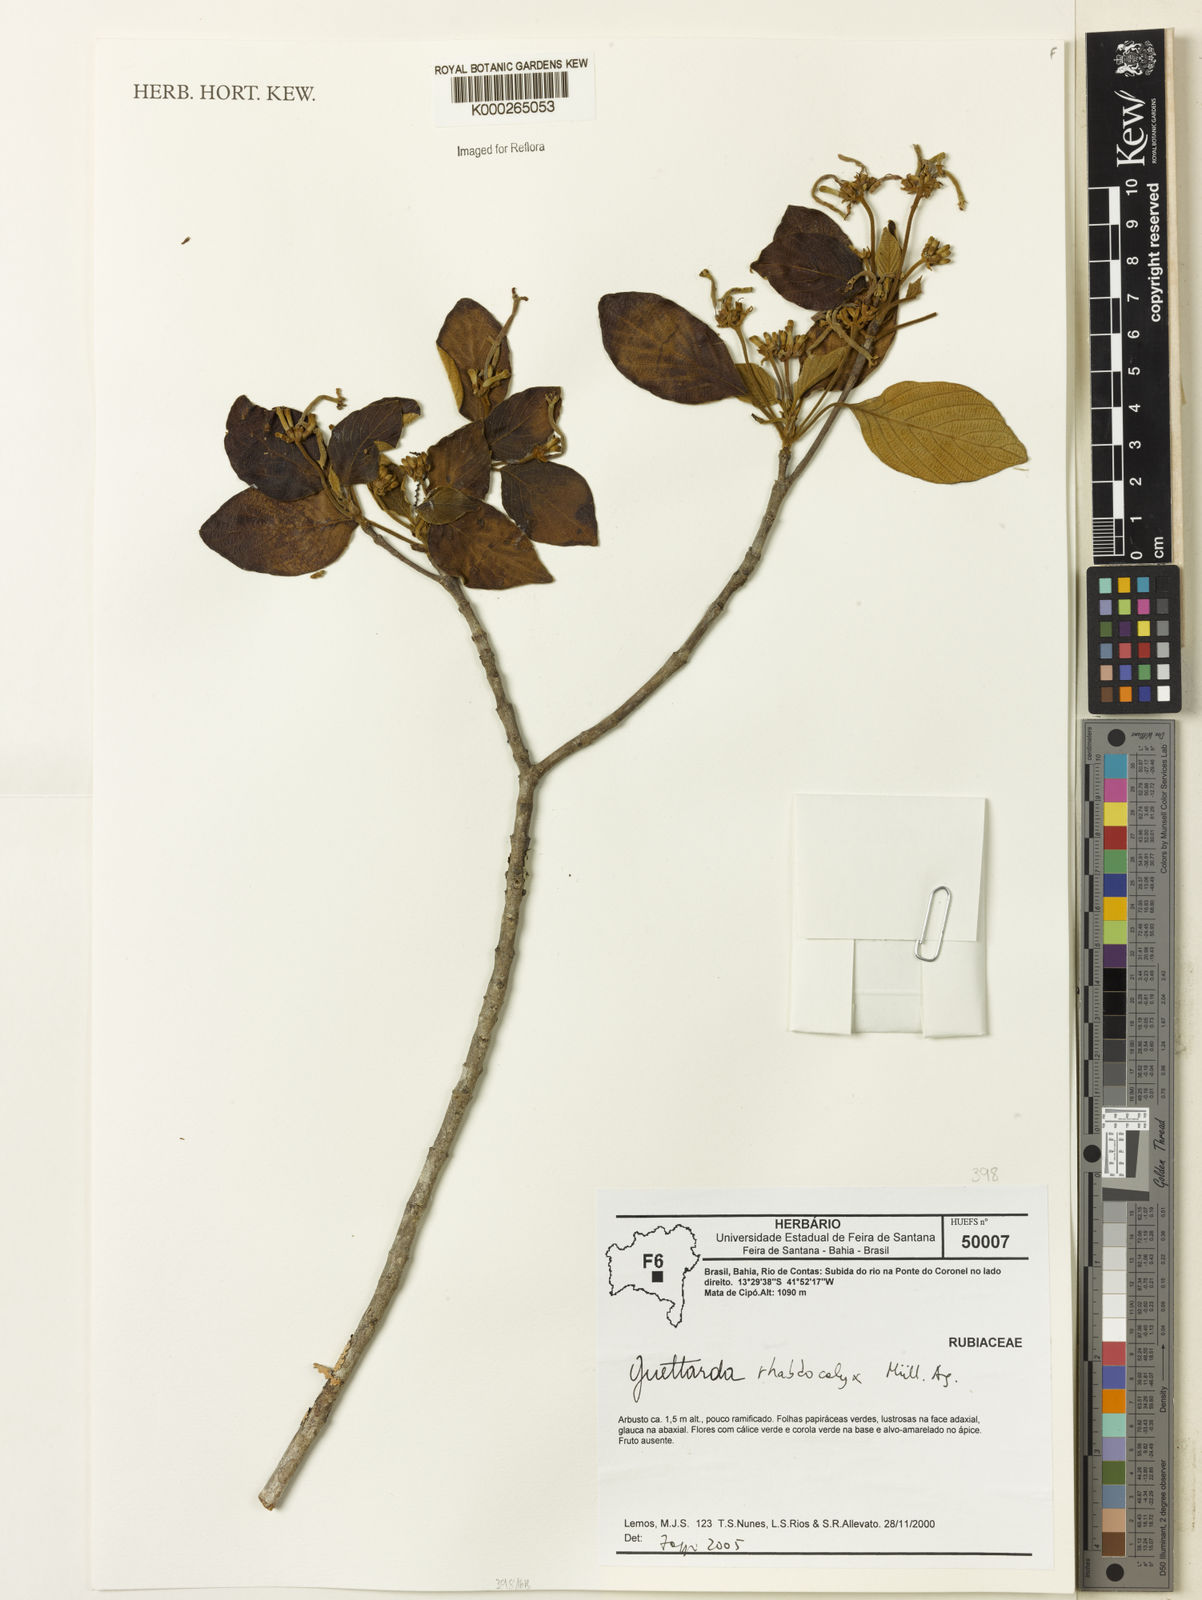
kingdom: Plantae
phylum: Tracheophyta
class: Magnoliopsida
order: Gentianales
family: Rubiaceae
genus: Guettarda
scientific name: Guettarda
